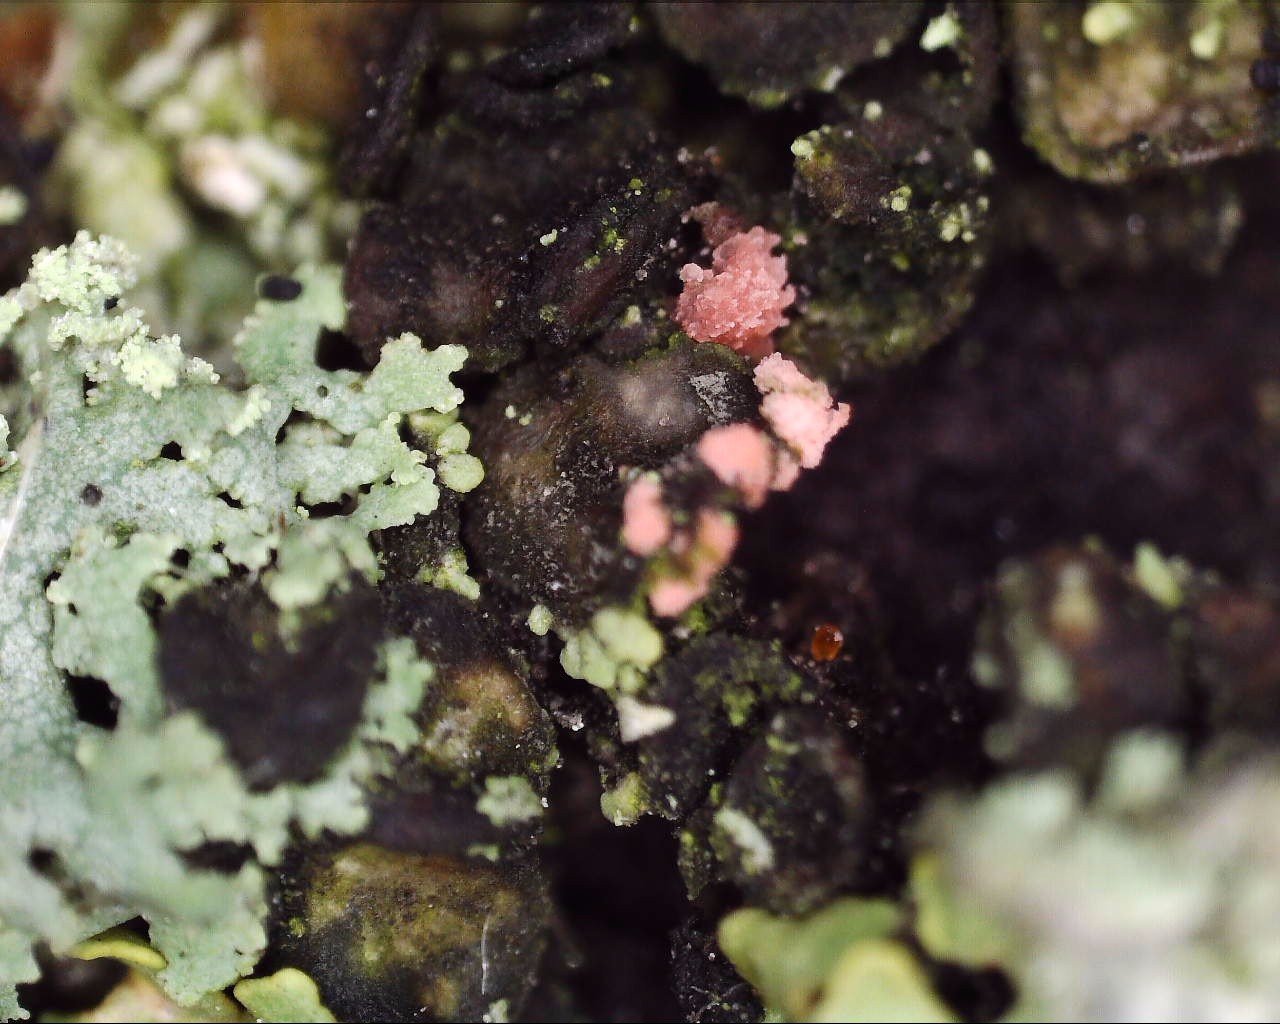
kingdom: Fungi
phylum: Ascomycota
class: Sordariomycetes
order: Hypocreales
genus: Illosporiopsis
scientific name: Illosporiopsis christiansenii
